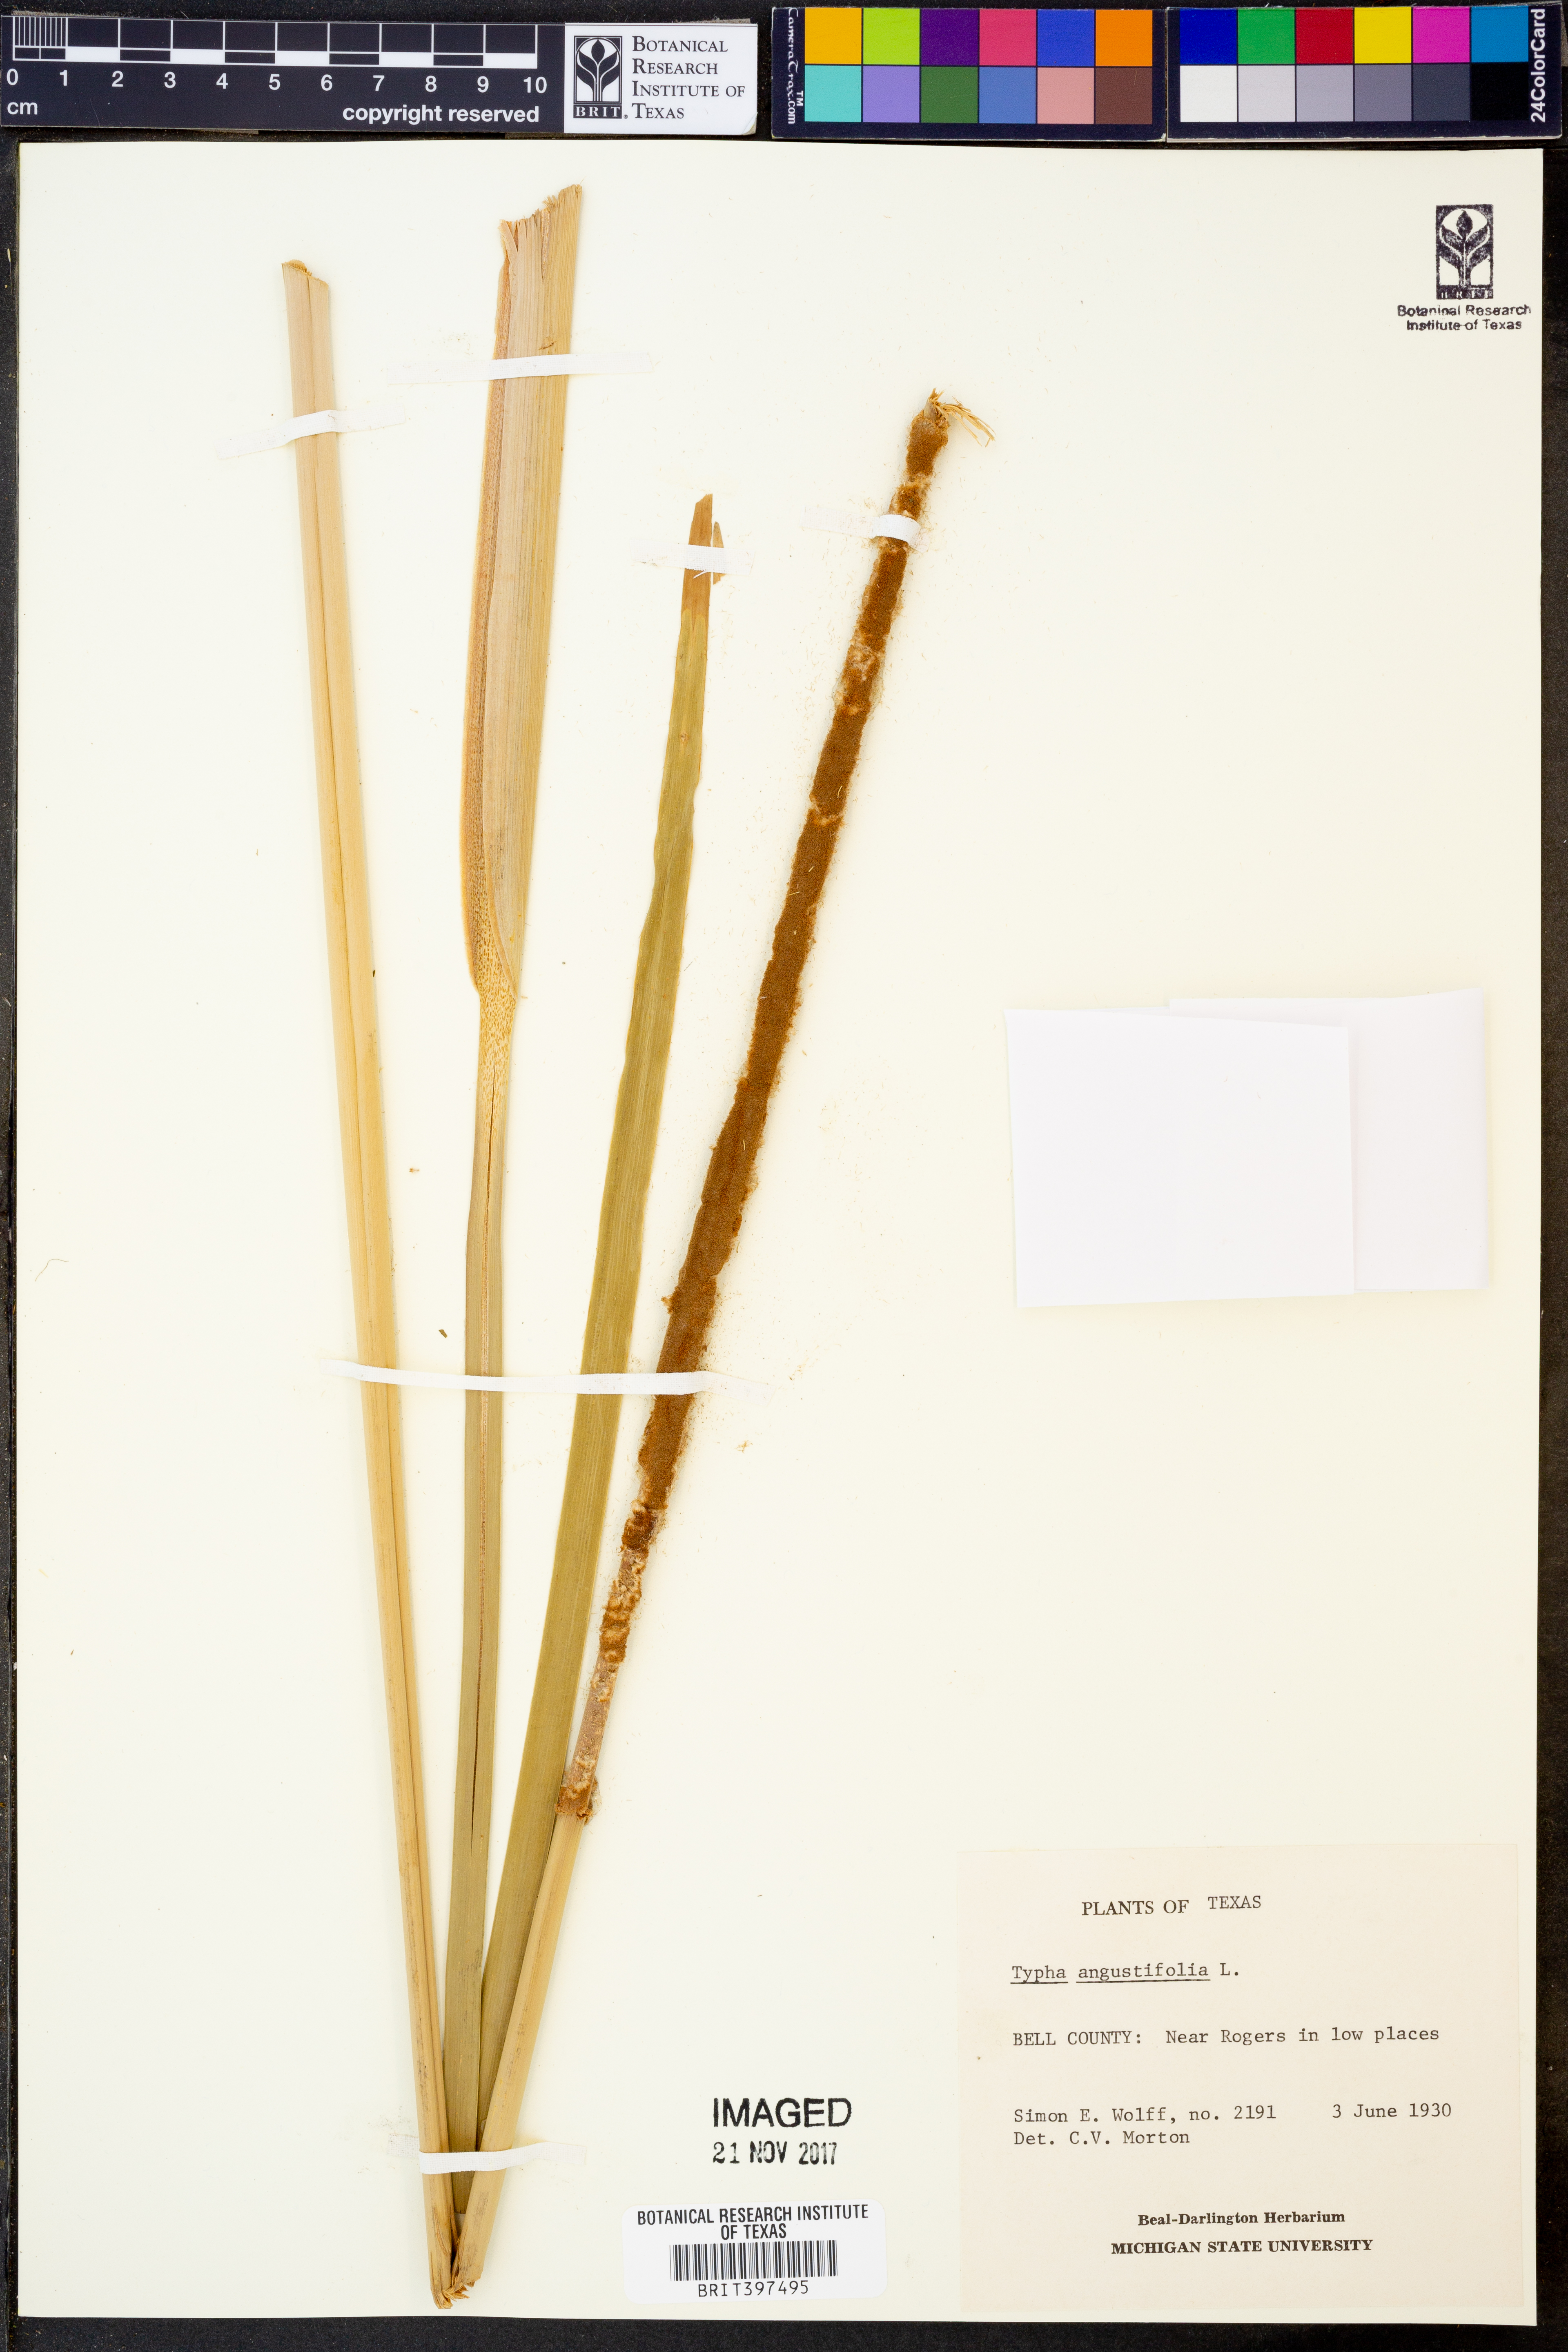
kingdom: Plantae
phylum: Tracheophyta
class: Liliopsida
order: Poales
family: Typhaceae
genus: Typha
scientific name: Typha angustifolia
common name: Lesser bulrush
